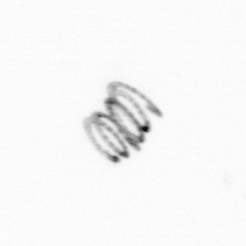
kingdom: Chromista
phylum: Ochrophyta
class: Bacillariophyceae
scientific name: Bacillariophyceae
